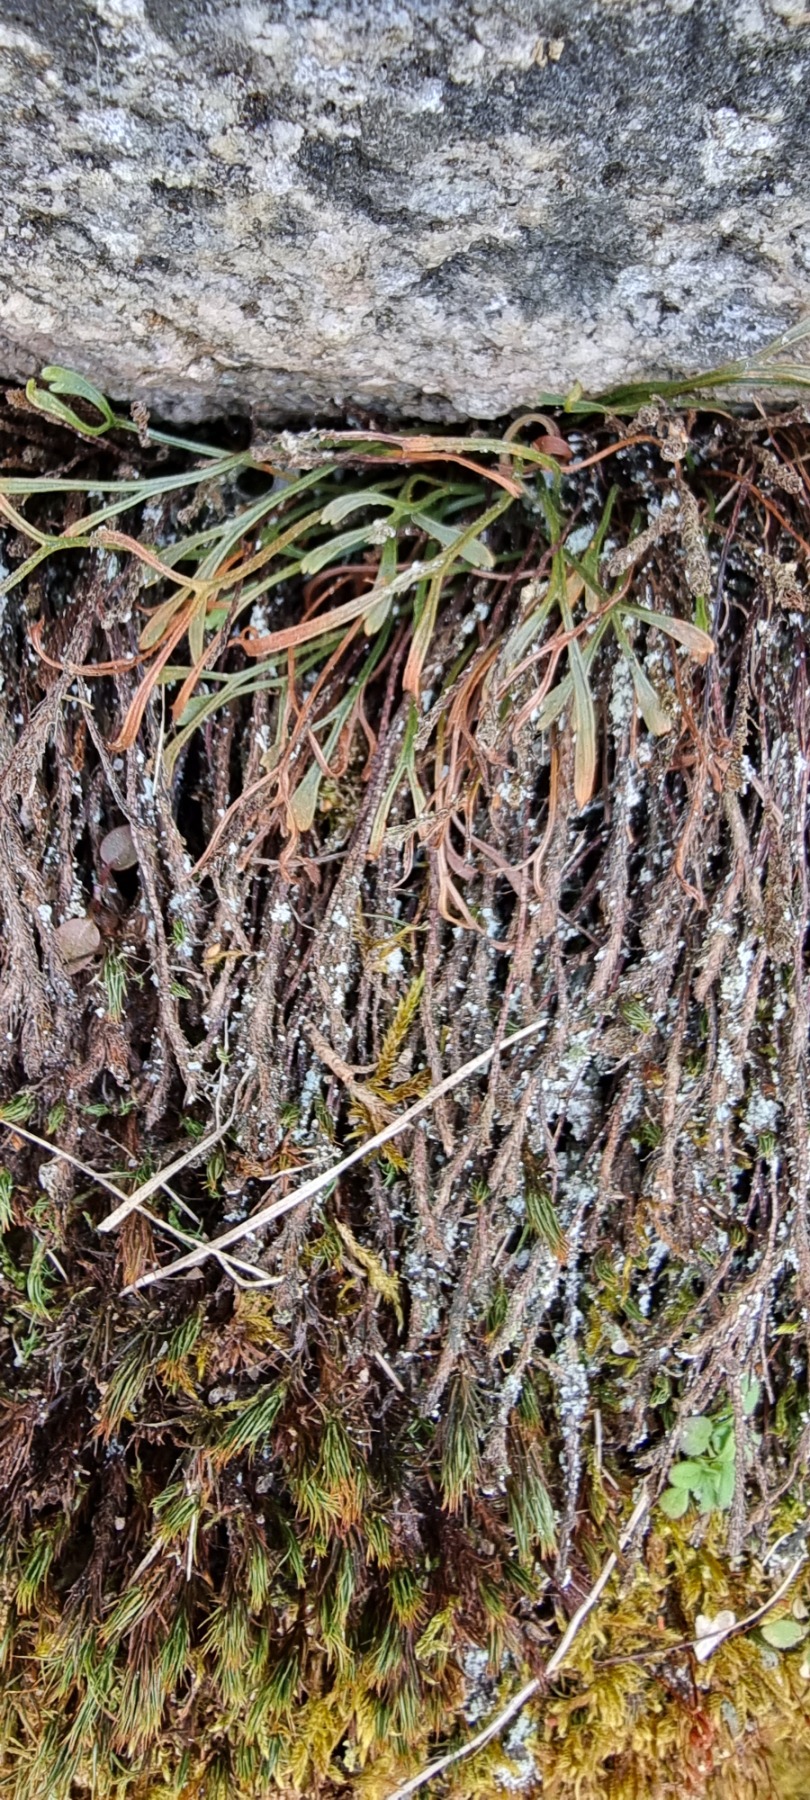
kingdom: Plantae
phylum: Tracheophyta
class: Polypodiopsida
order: Polypodiales
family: Aspleniaceae
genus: Asplenium
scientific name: Asplenium septentrionale
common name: Nordisk radeløv
